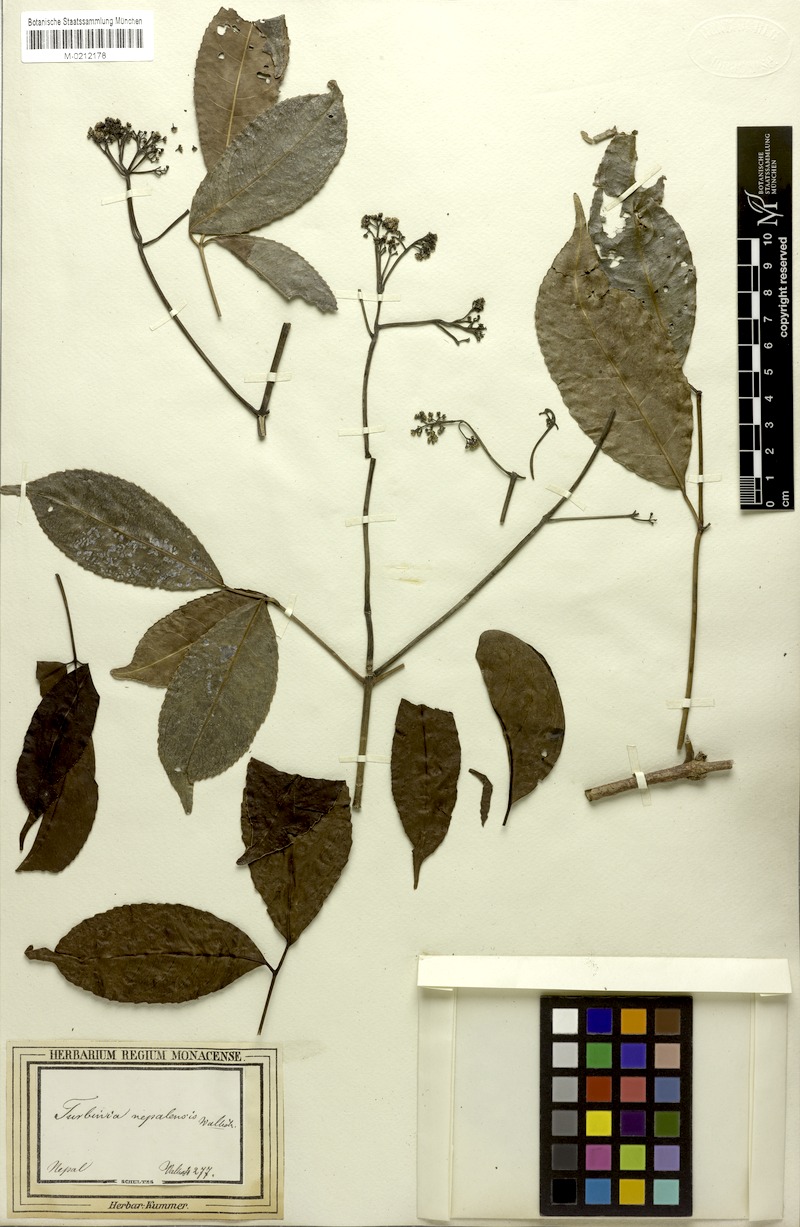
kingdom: Plantae
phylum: Tracheophyta
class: Magnoliopsida
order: Crossosomatales
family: Staphyleaceae
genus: Turpinia
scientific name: Turpinia cochinchinensis
